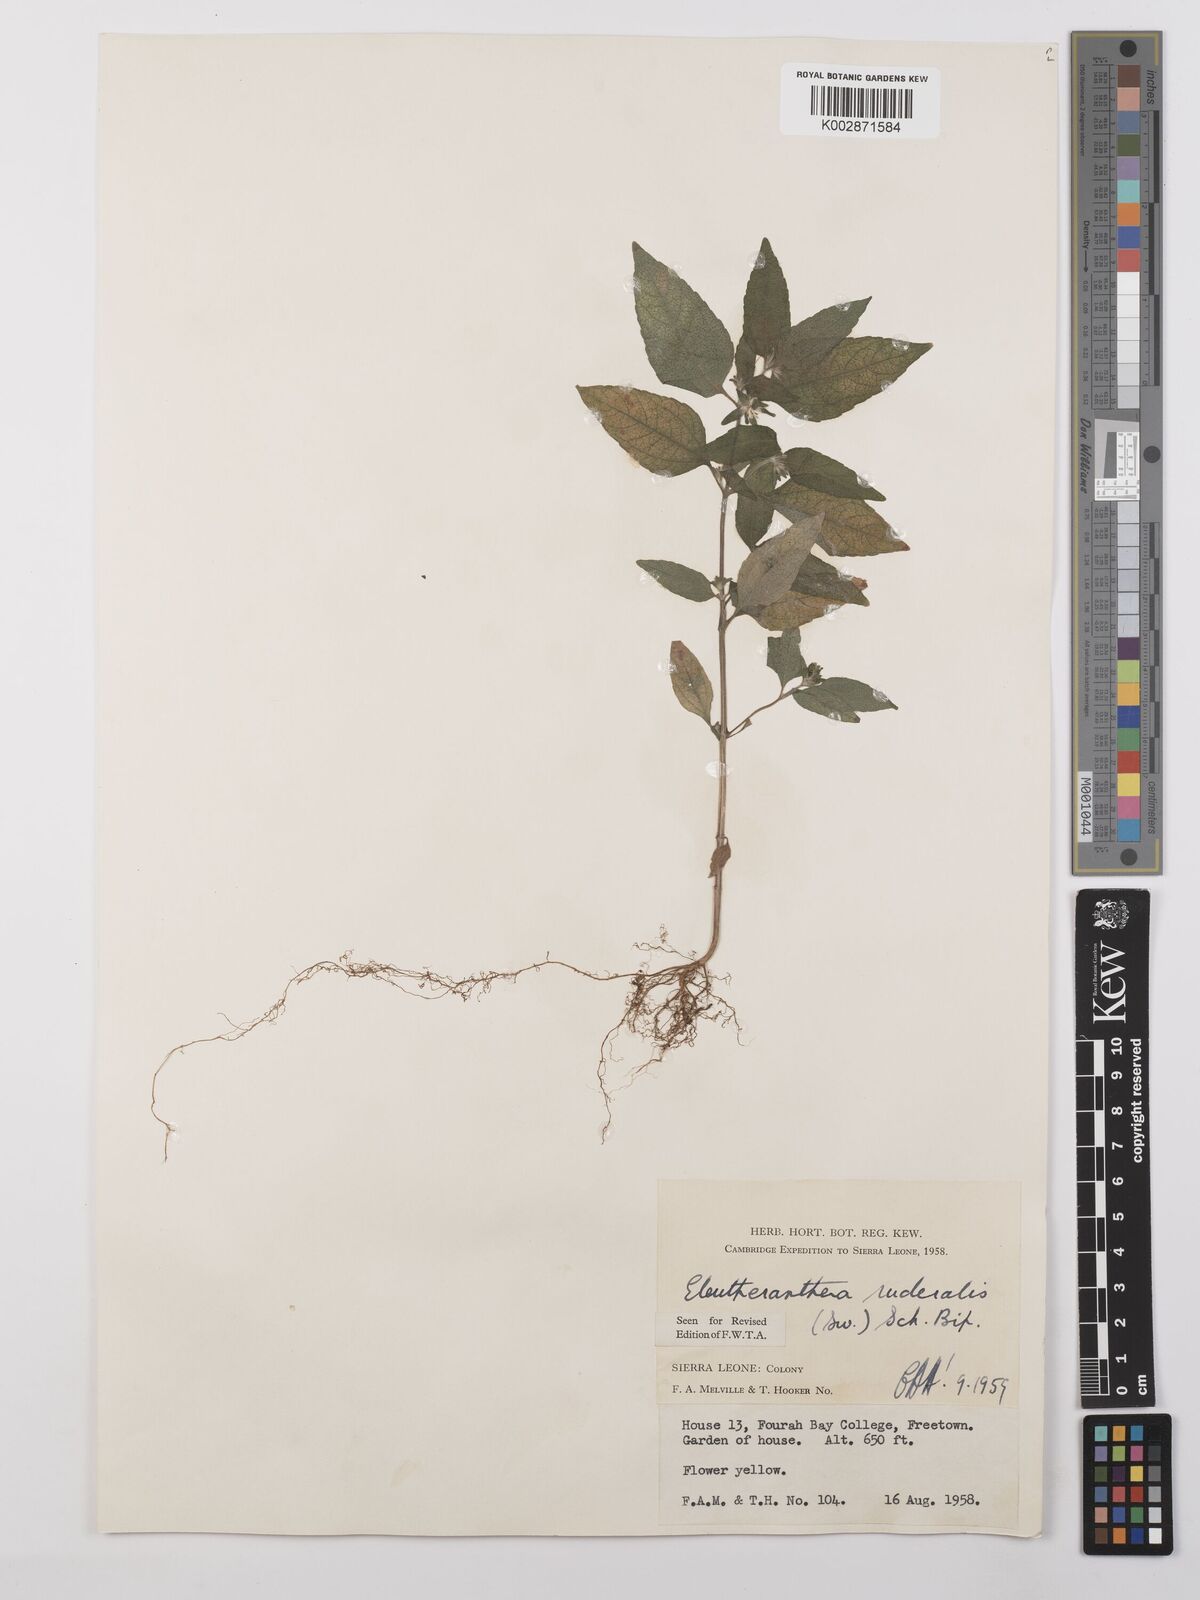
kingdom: Plantae
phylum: Tracheophyta
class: Magnoliopsida
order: Asterales
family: Asteraceae
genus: Eleutheranthera
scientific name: Eleutheranthera ruderalis
